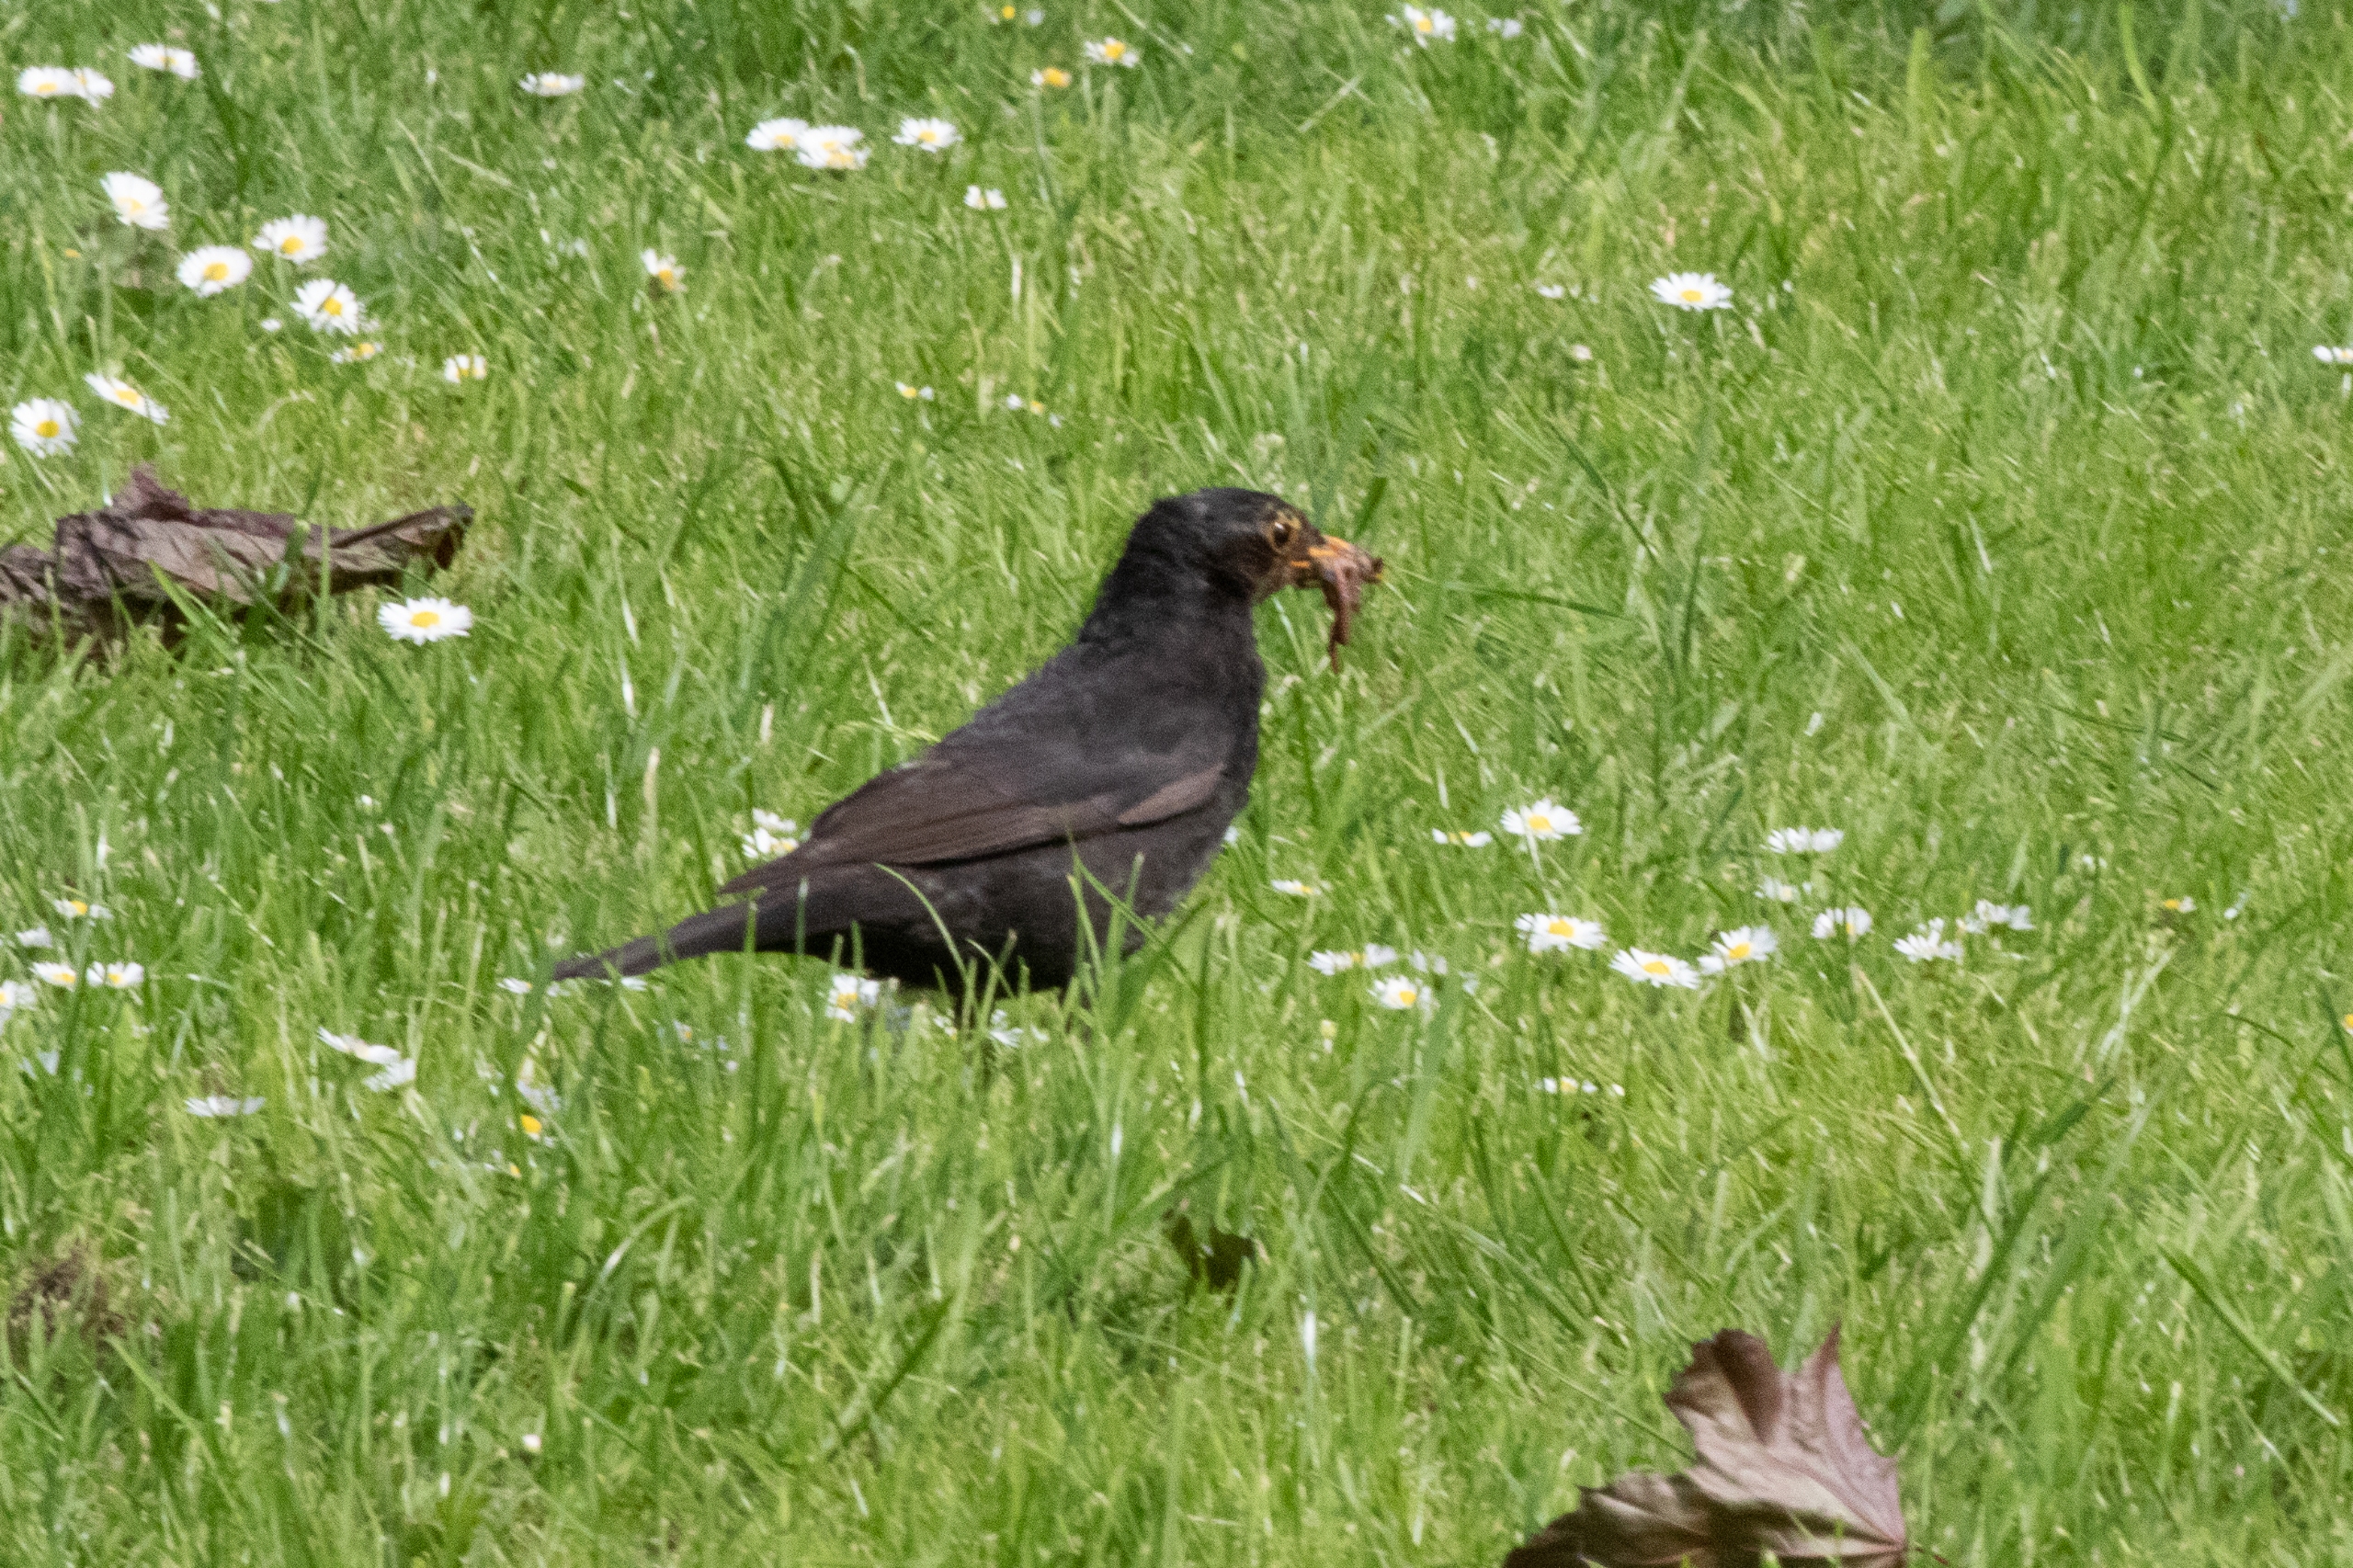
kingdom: Animalia
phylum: Chordata
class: Aves
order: Passeriformes
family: Turdidae
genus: Turdus
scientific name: Turdus merula
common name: Solsort
